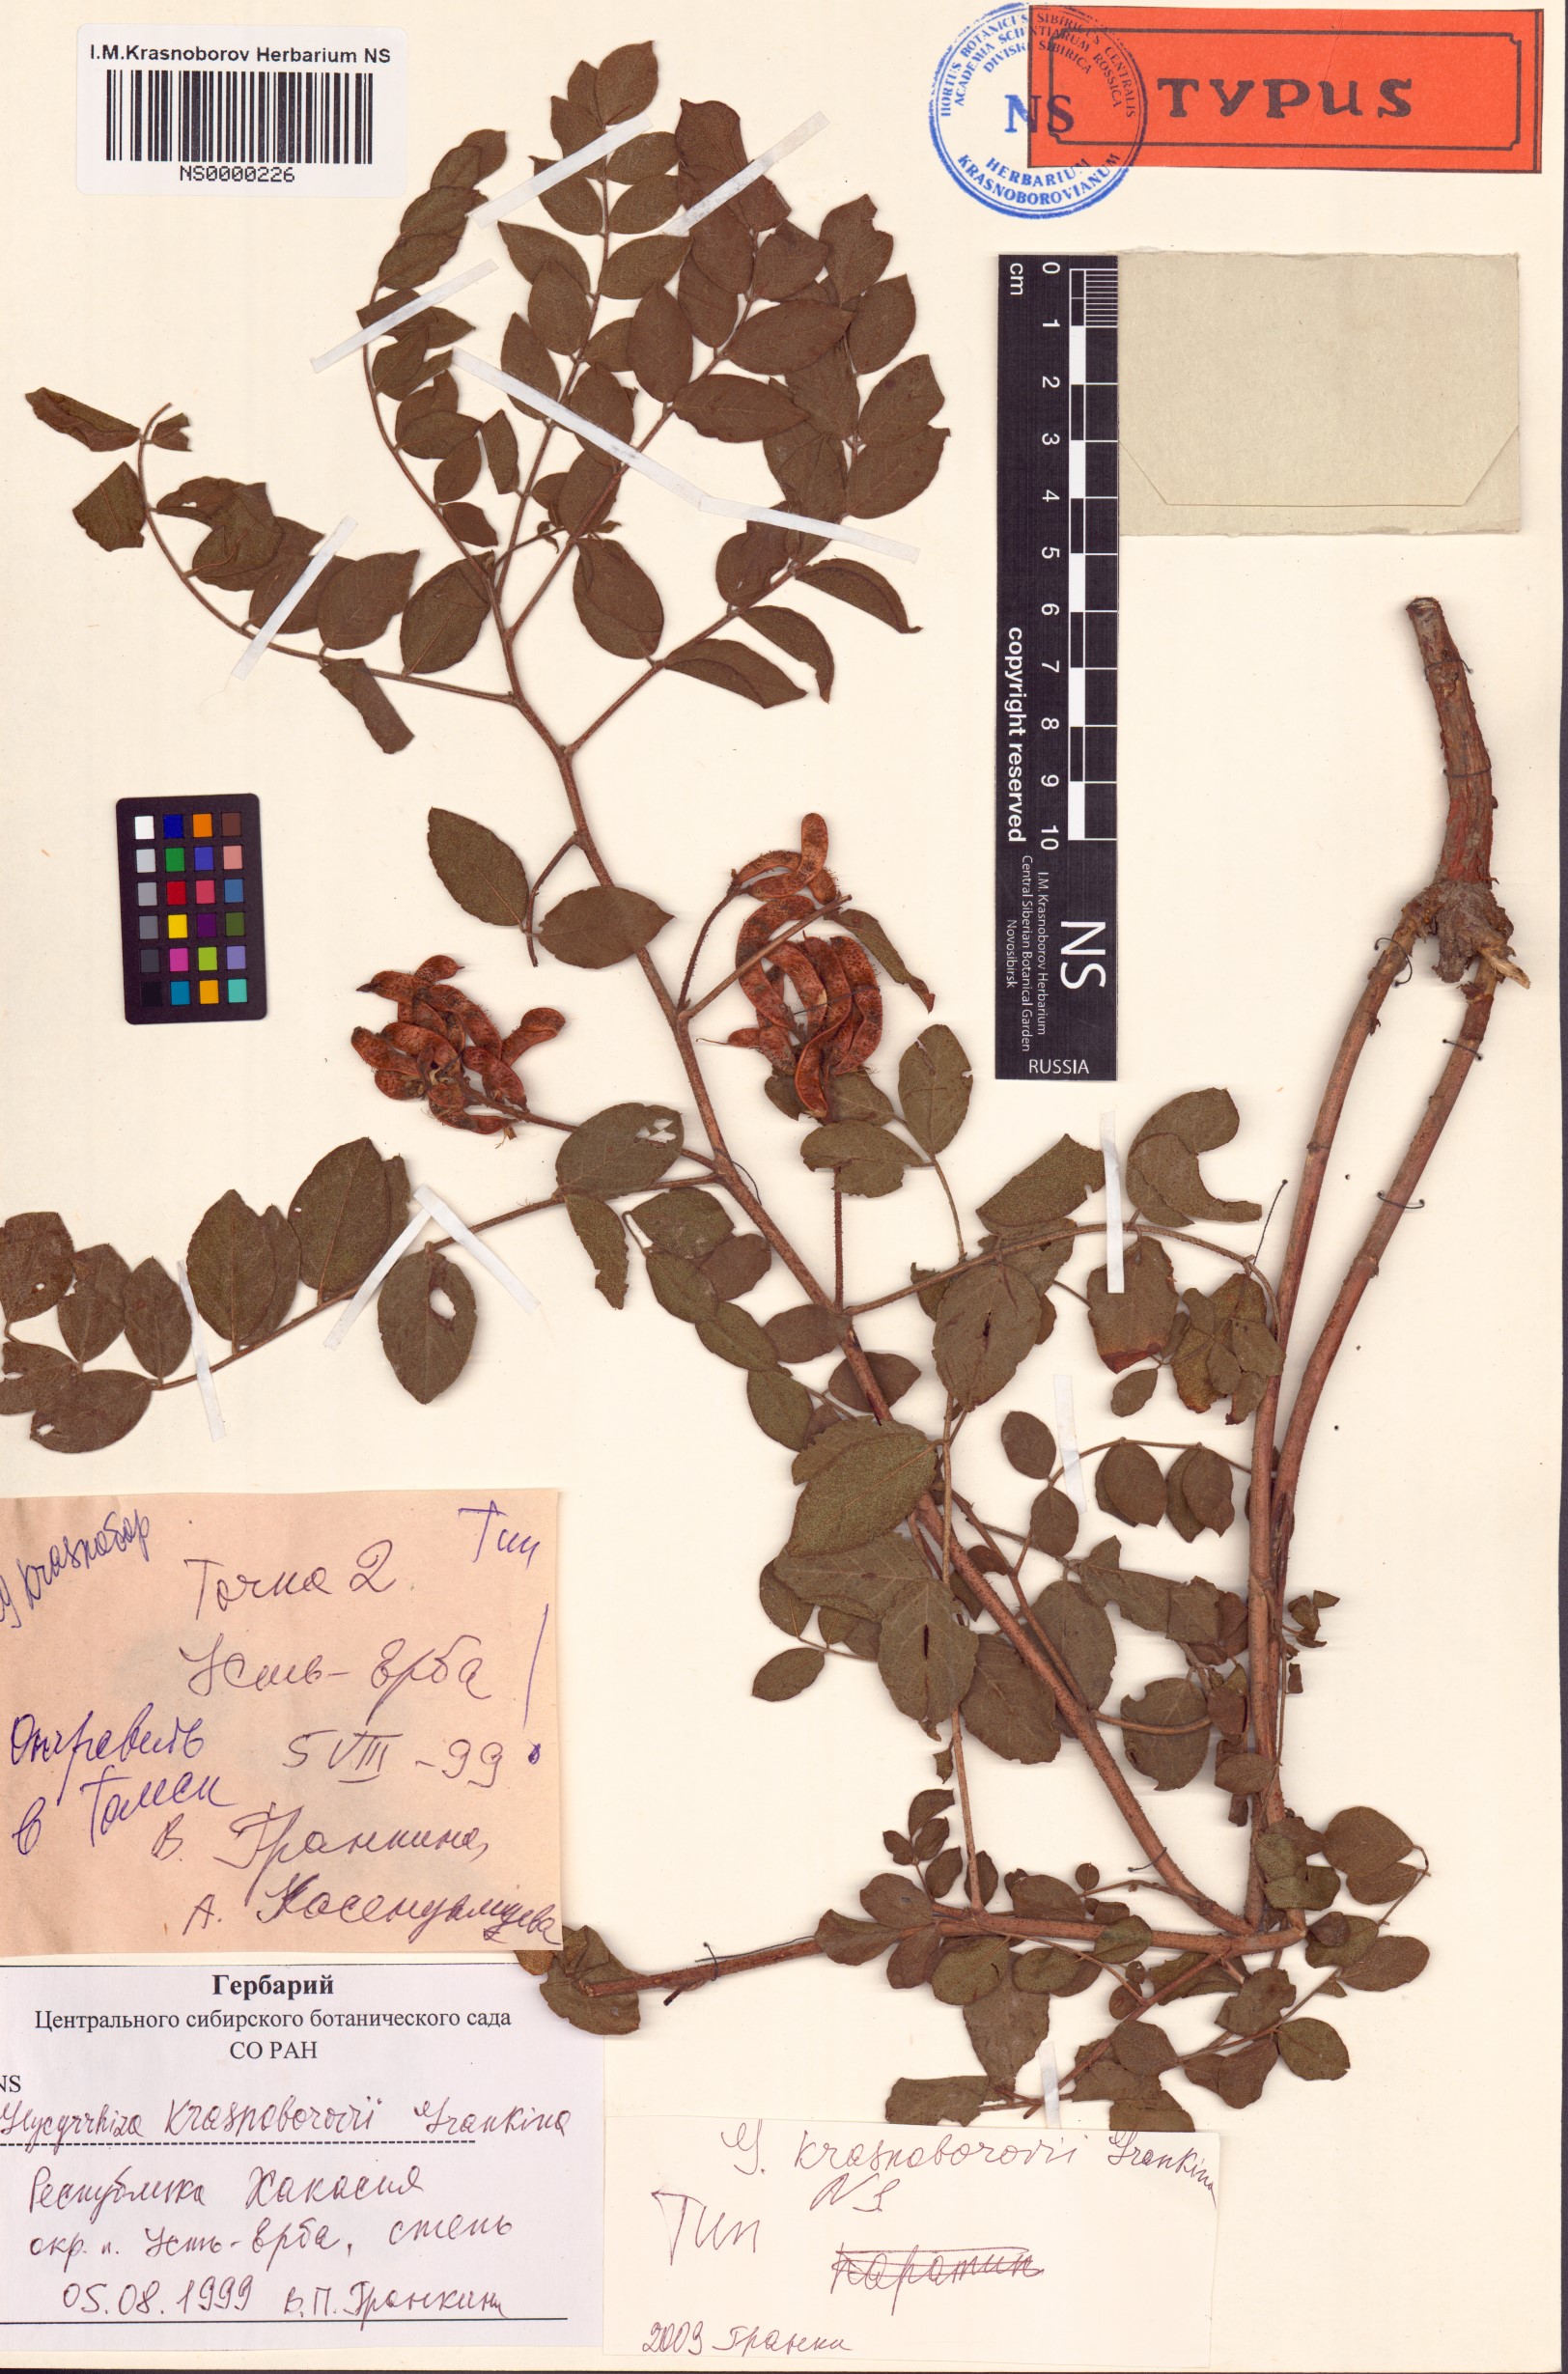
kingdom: Plantae
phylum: Tracheophyta
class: Magnoliopsida
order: Fabales
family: Fabaceae
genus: Glycyrrhiza
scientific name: Glycyrrhiza uralensis
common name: Chinese licorice
